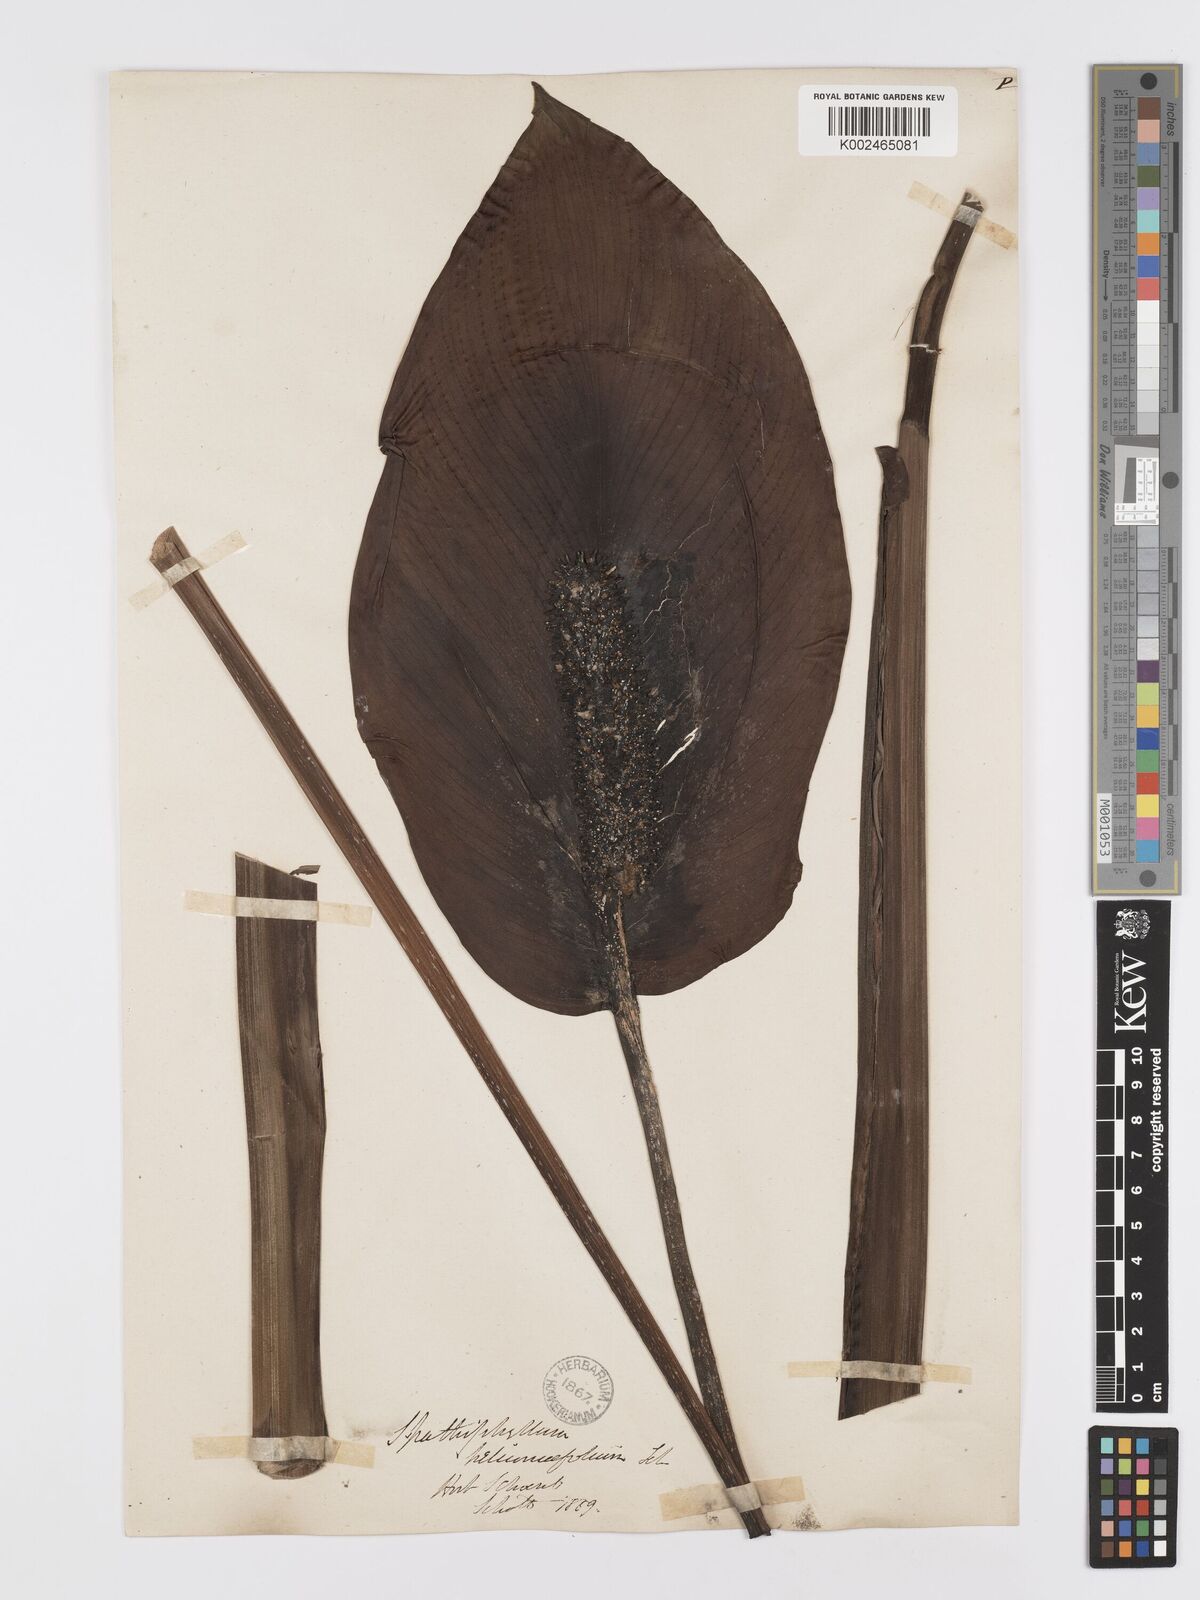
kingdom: Plantae
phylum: Tracheophyta
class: Liliopsida
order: Alismatales
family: Araceae
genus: Spathiphyllum
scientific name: Spathiphyllum cochlearispathum
